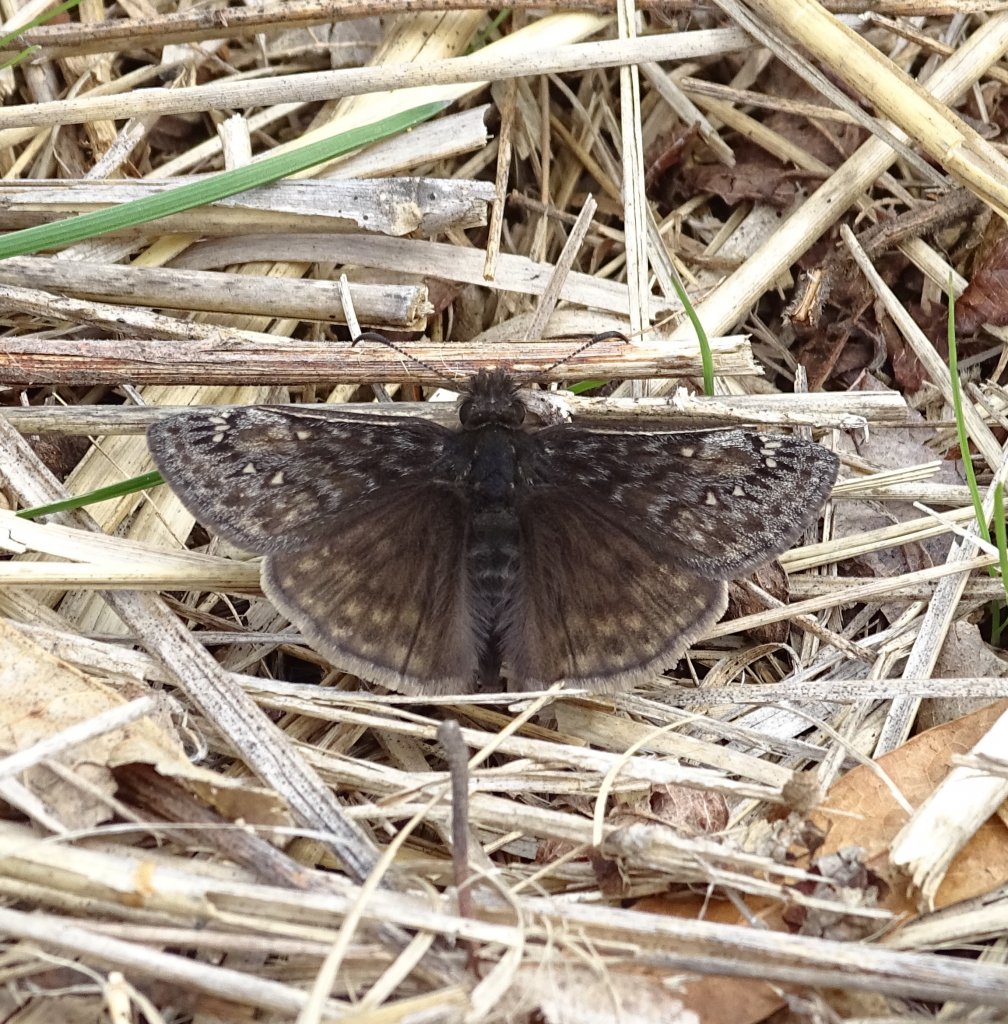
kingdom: Animalia
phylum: Arthropoda
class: Insecta
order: Lepidoptera
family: Hesperiidae
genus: Gesta
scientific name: Gesta
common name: Juvenal's Duskywing
